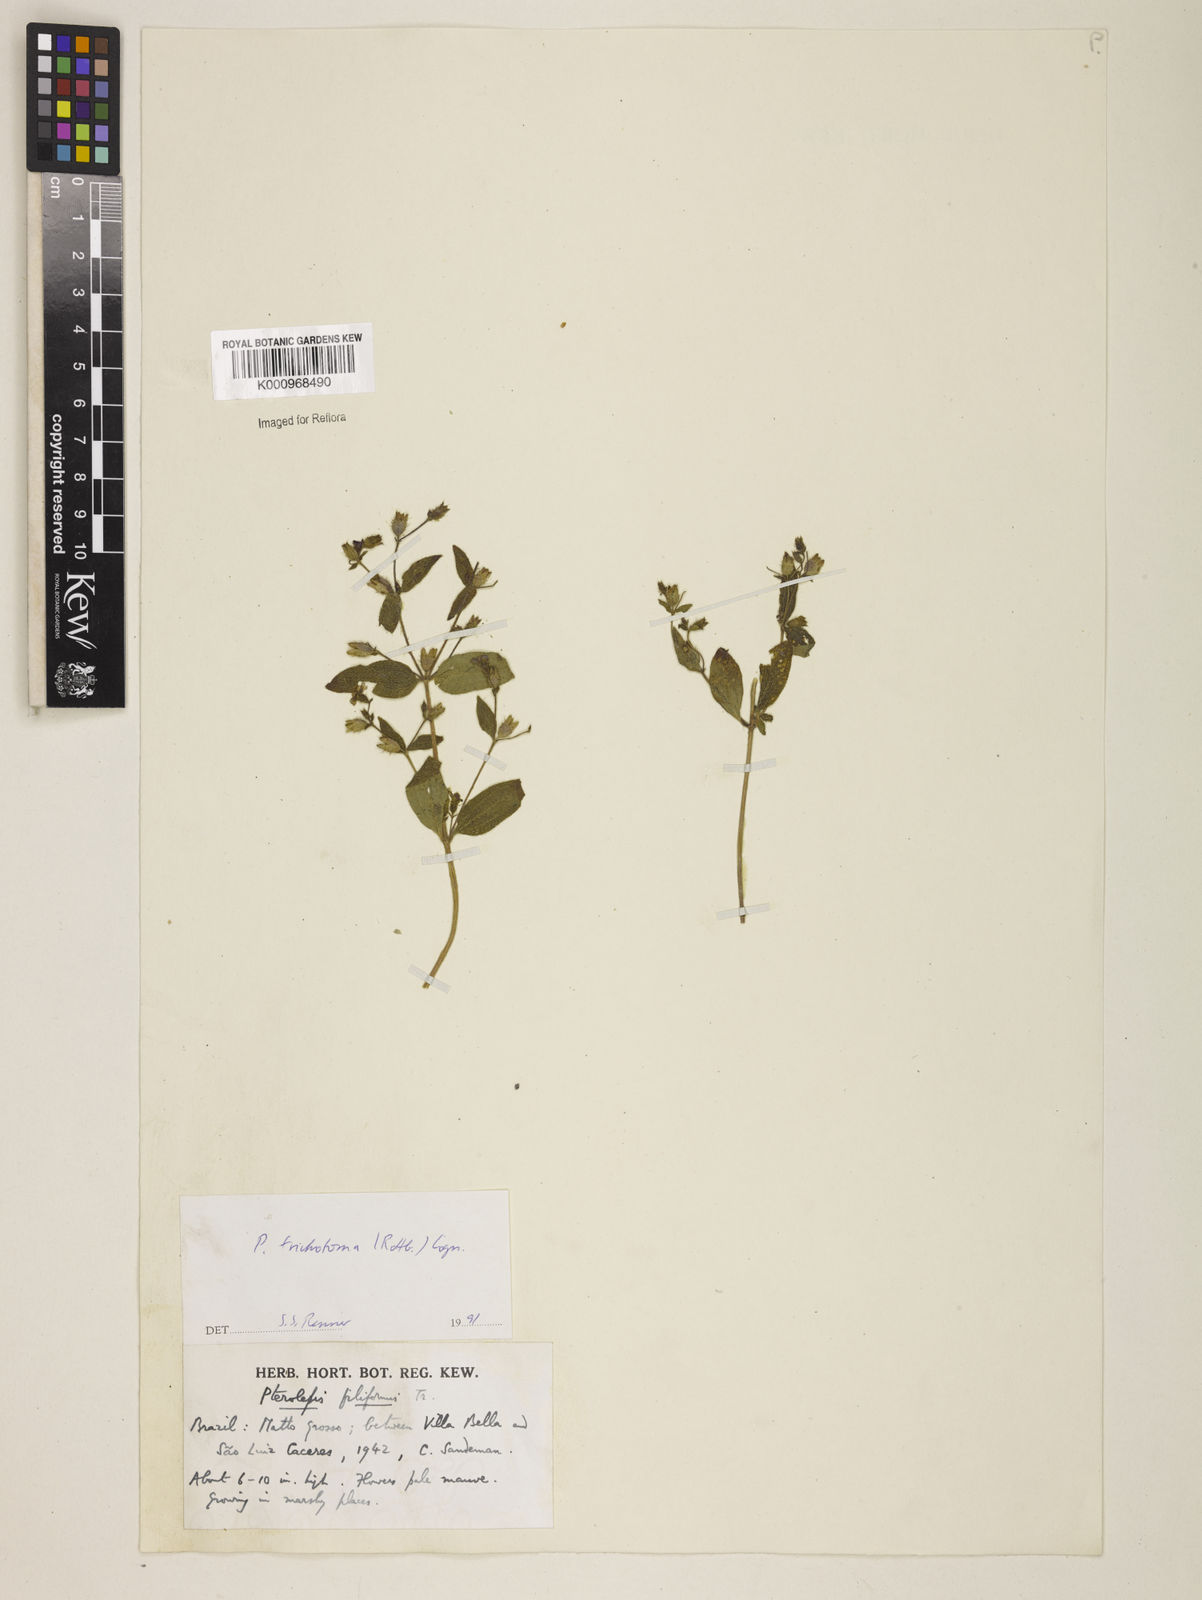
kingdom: Plantae
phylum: Tracheophyta
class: Magnoliopsida
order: Myrtales
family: Melastomataceae
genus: Pterolepis
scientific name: Pterolepis trichotoma
